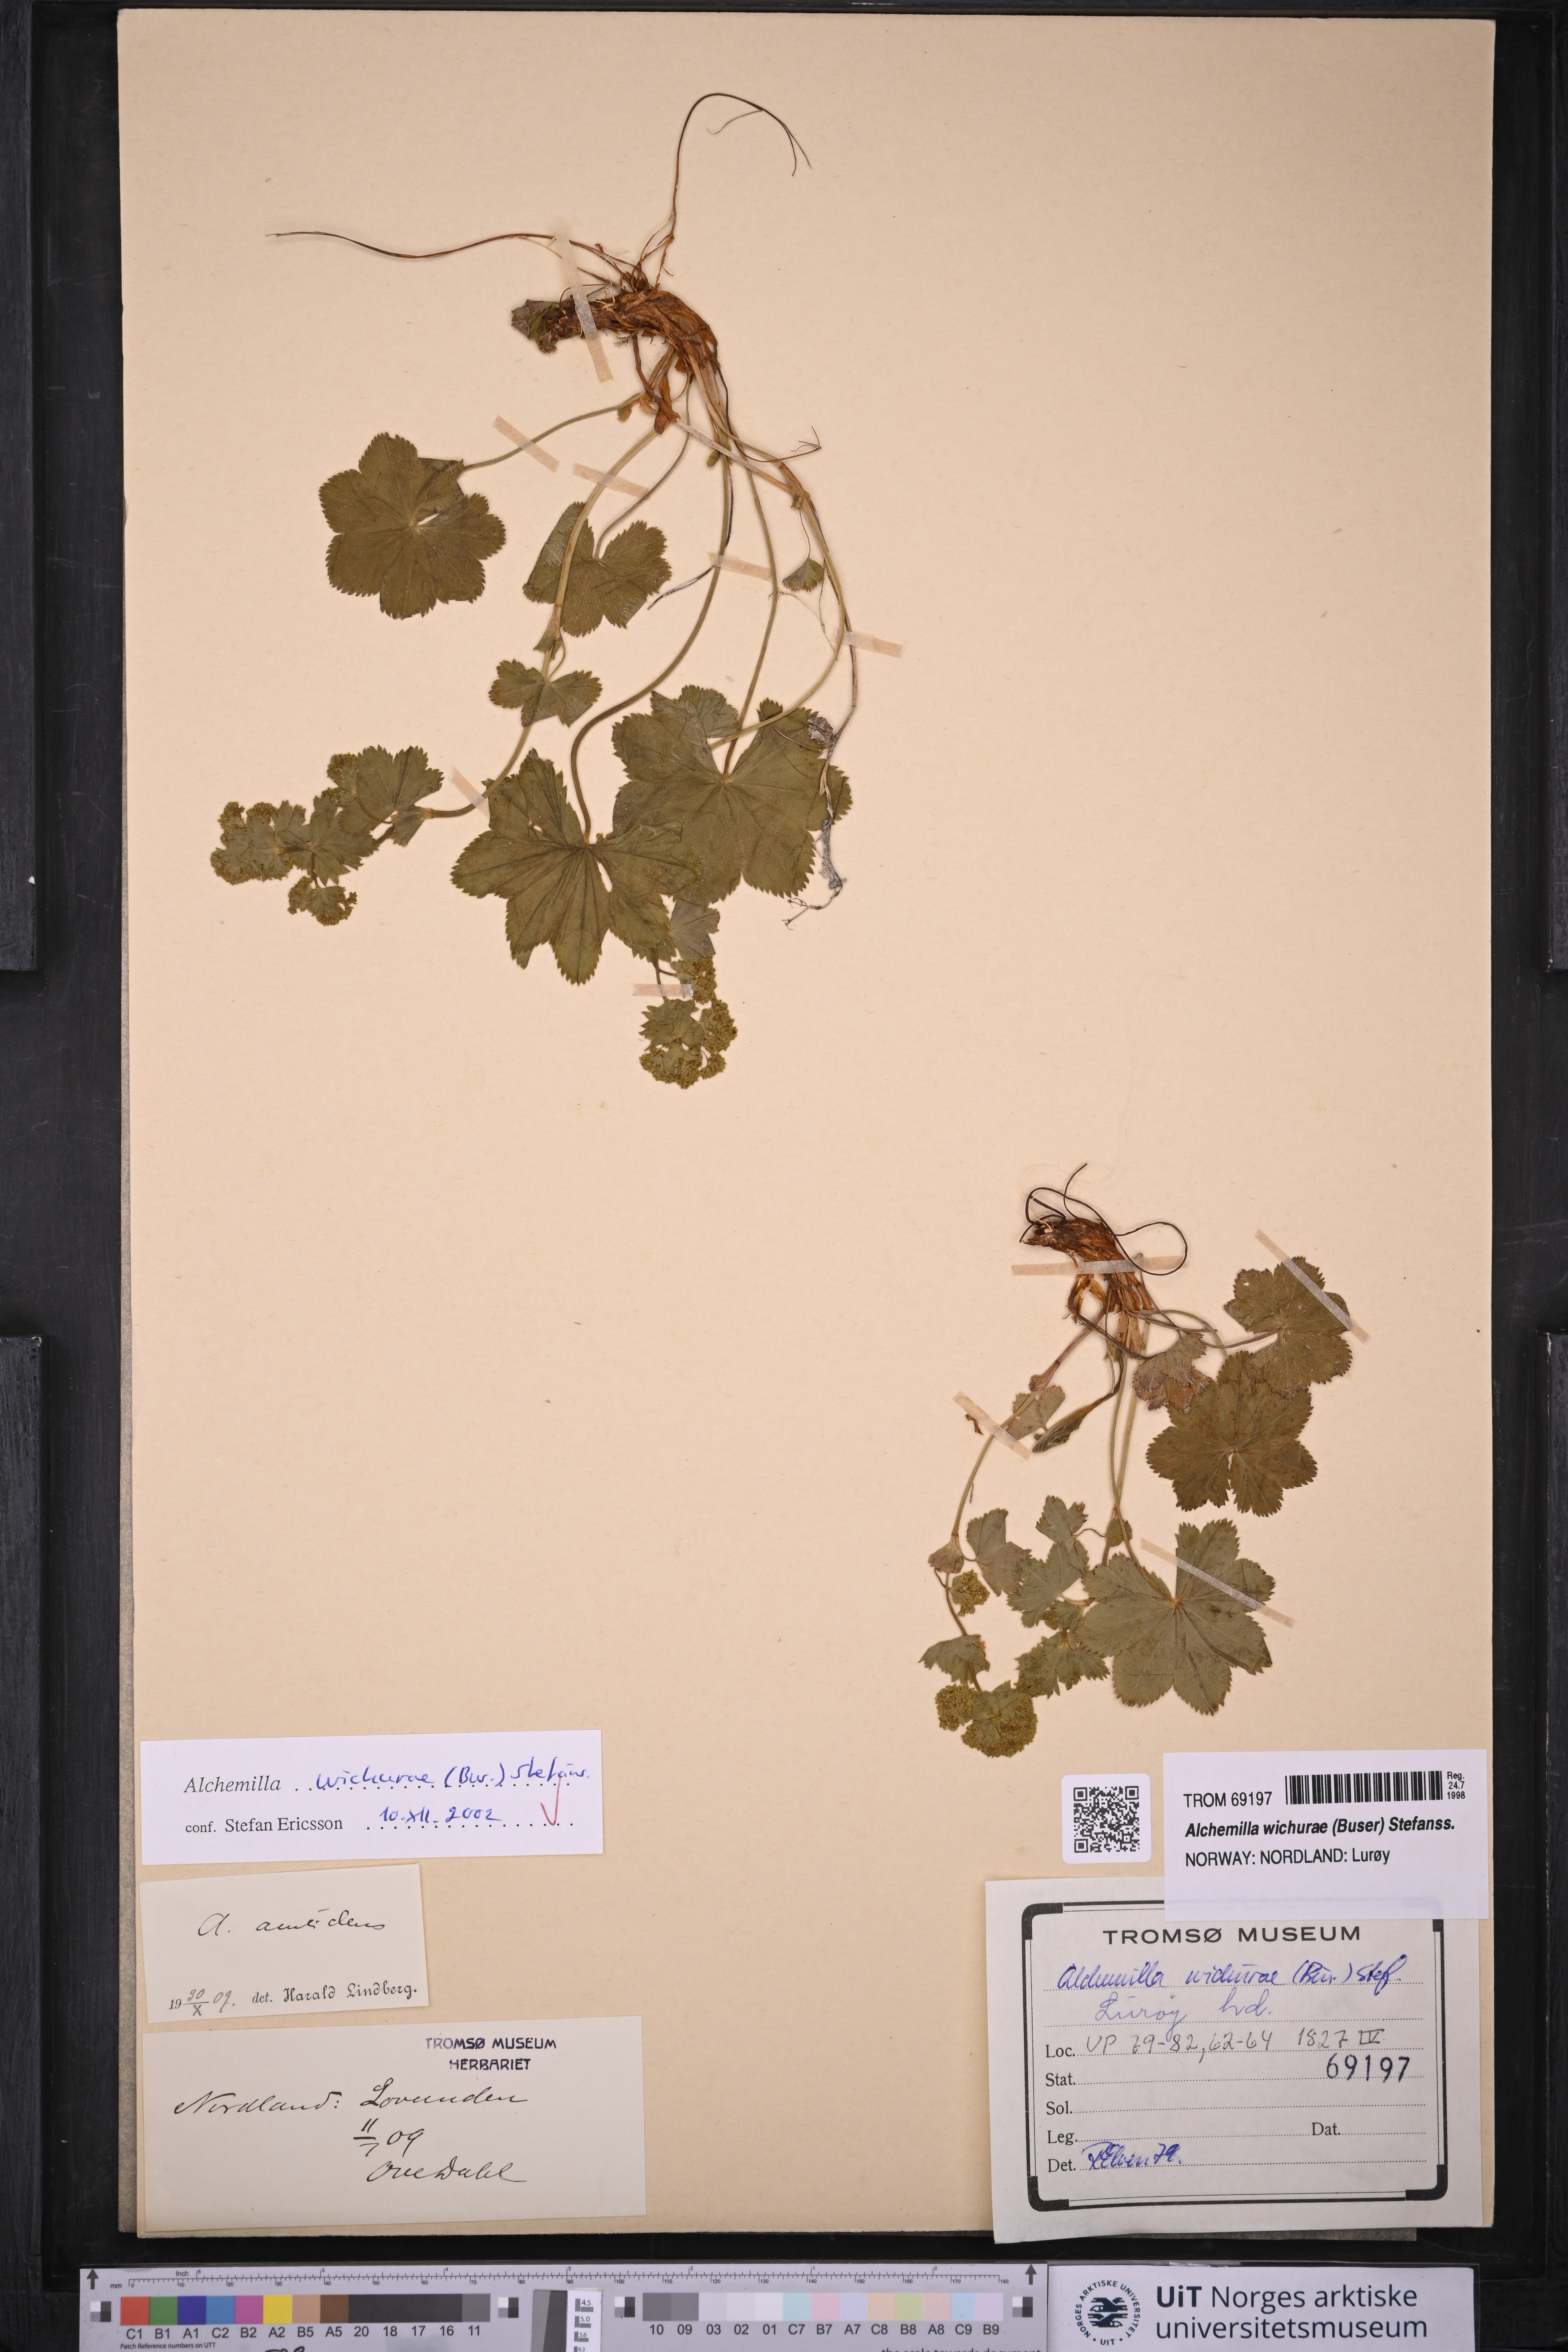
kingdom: Plantae
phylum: Tracheophyta
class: Magnoliopsida
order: Rosales
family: Rosaceae
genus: Alchemilla
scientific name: Alchemilla wichurae
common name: Rock lady's mantle
